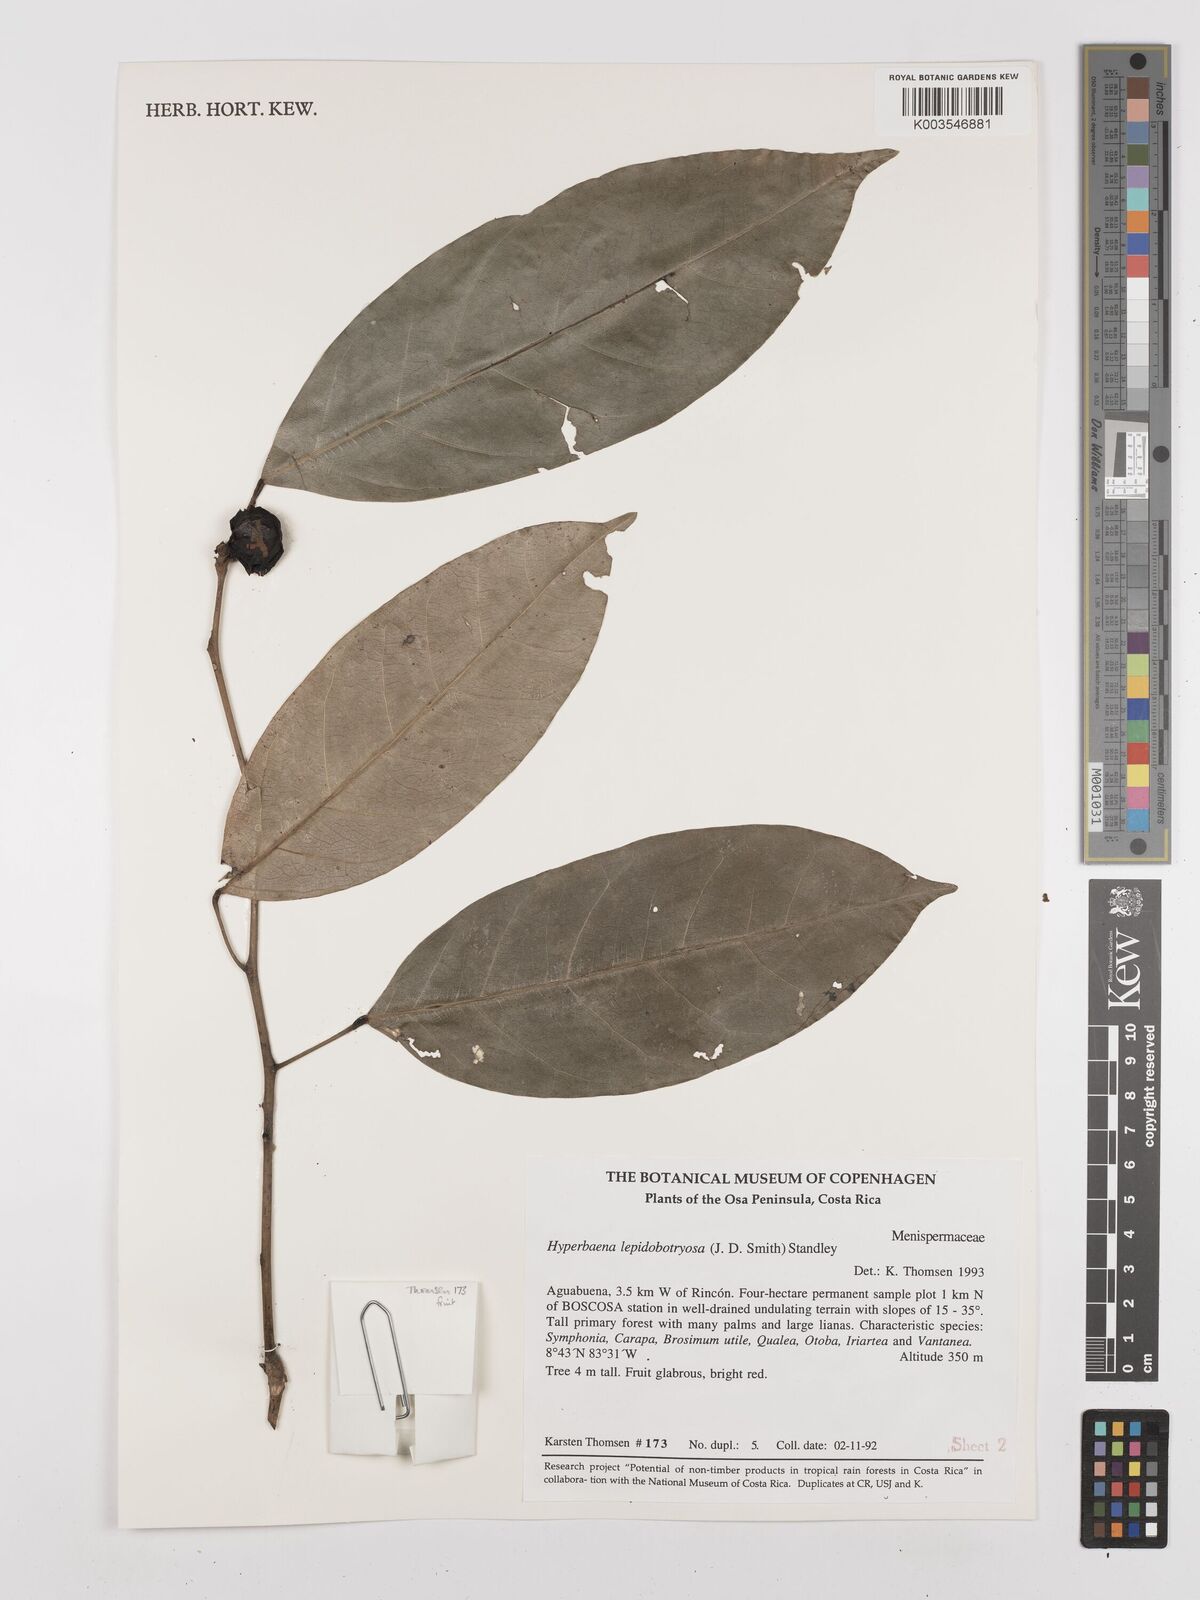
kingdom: Plantae
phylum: Tracheophyta
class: Magnoliopsida
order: Ranunculales
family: Menispermaceae
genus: Hyperbaena
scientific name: Hyperbaena leptobotryosa
